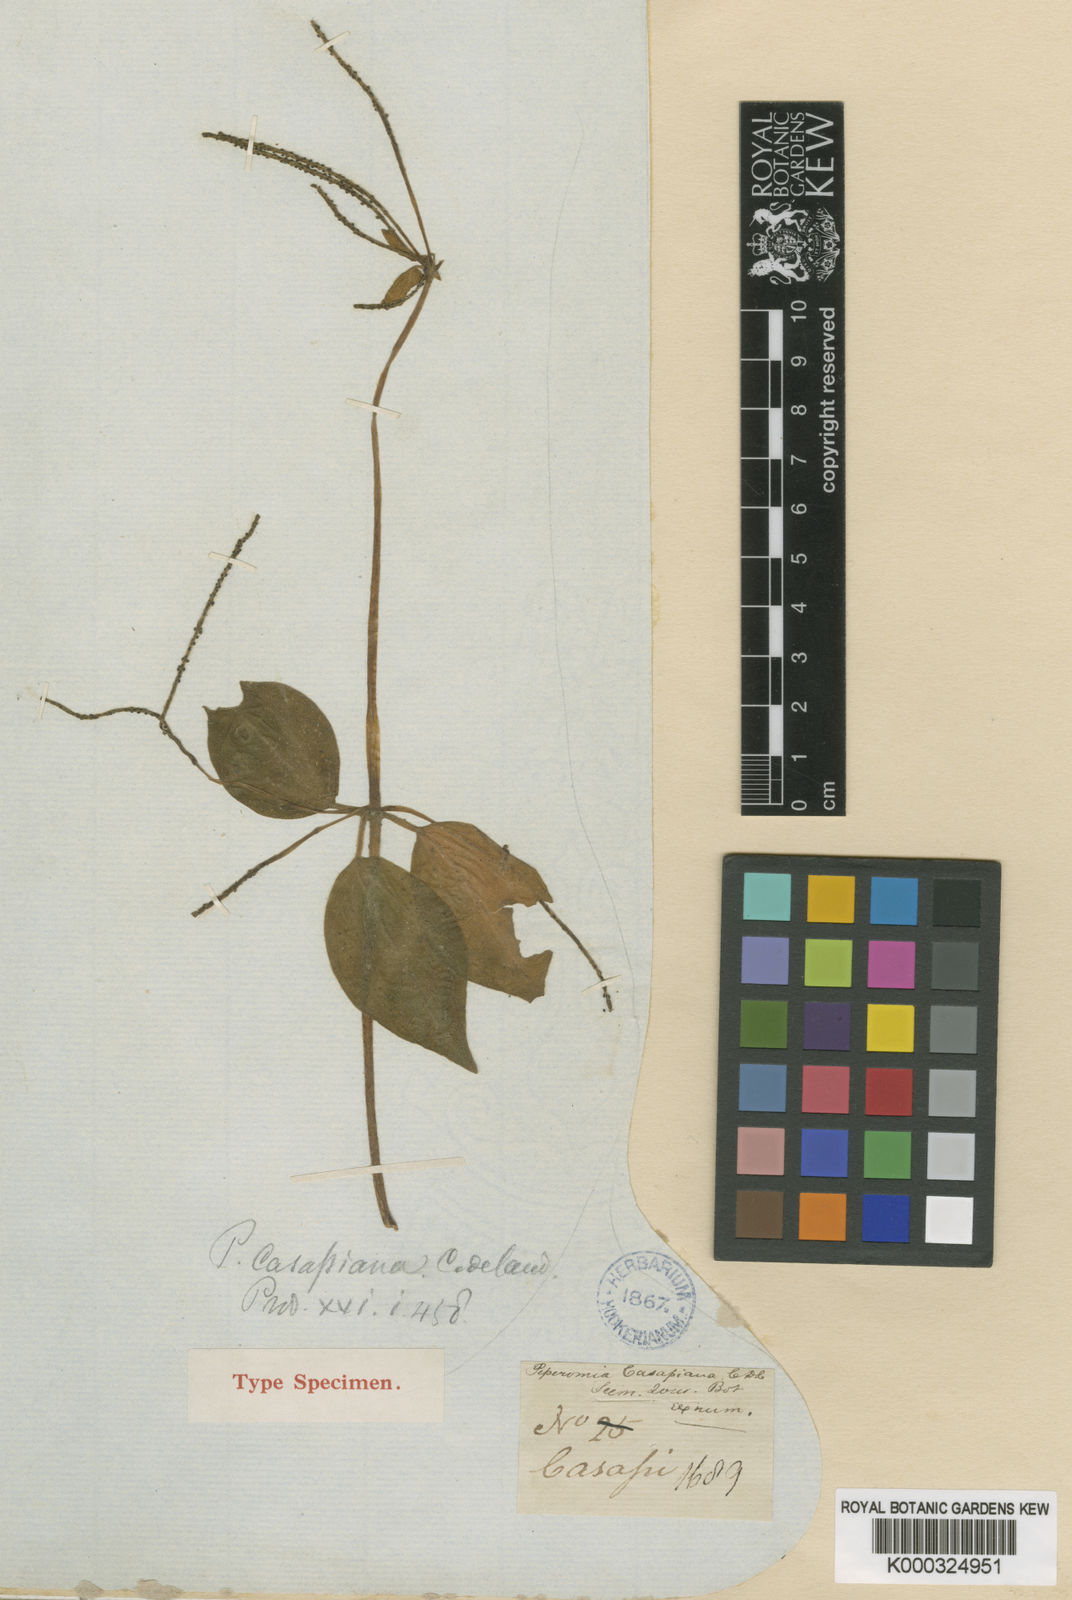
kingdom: Plantae
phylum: Tracheophyta
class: Magnoliopsida
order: Piperales
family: Piperaceae
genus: Peperomia
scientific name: Peperomia casapiana
